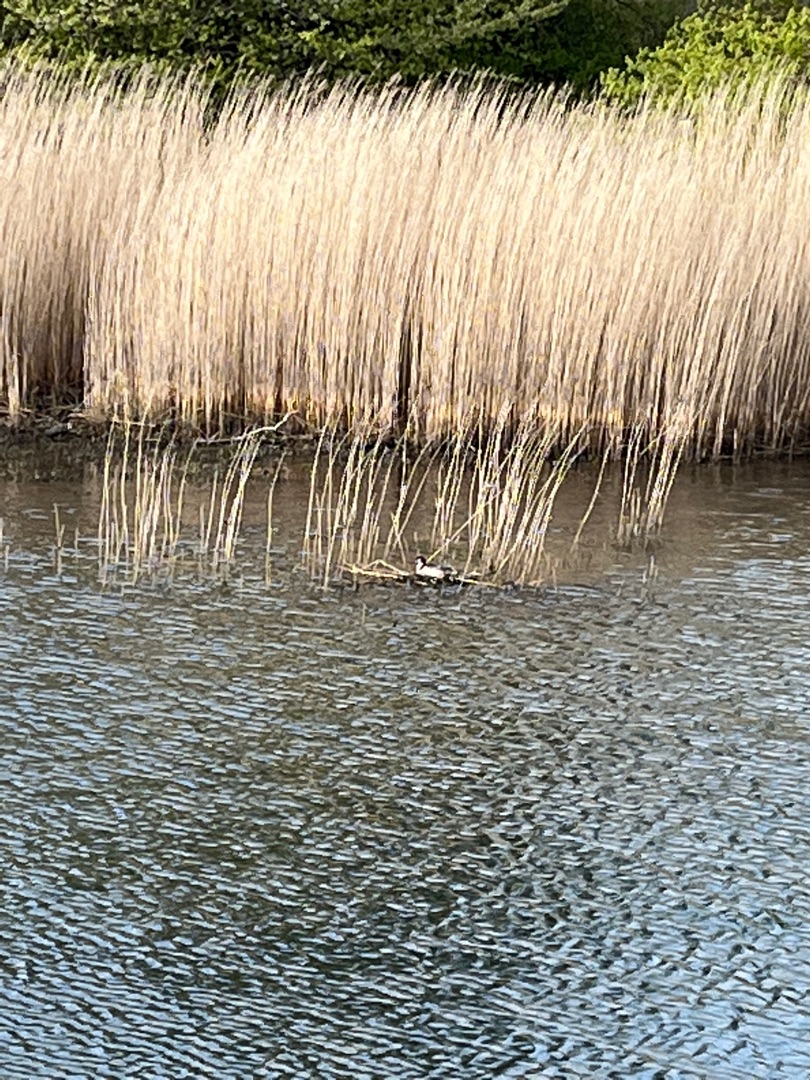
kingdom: Animalia
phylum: Chordata
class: Aves
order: Podicipediformes
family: Podicipedidae
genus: Podiceps
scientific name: Podiceps cristatus
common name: Toppet lappedykker
